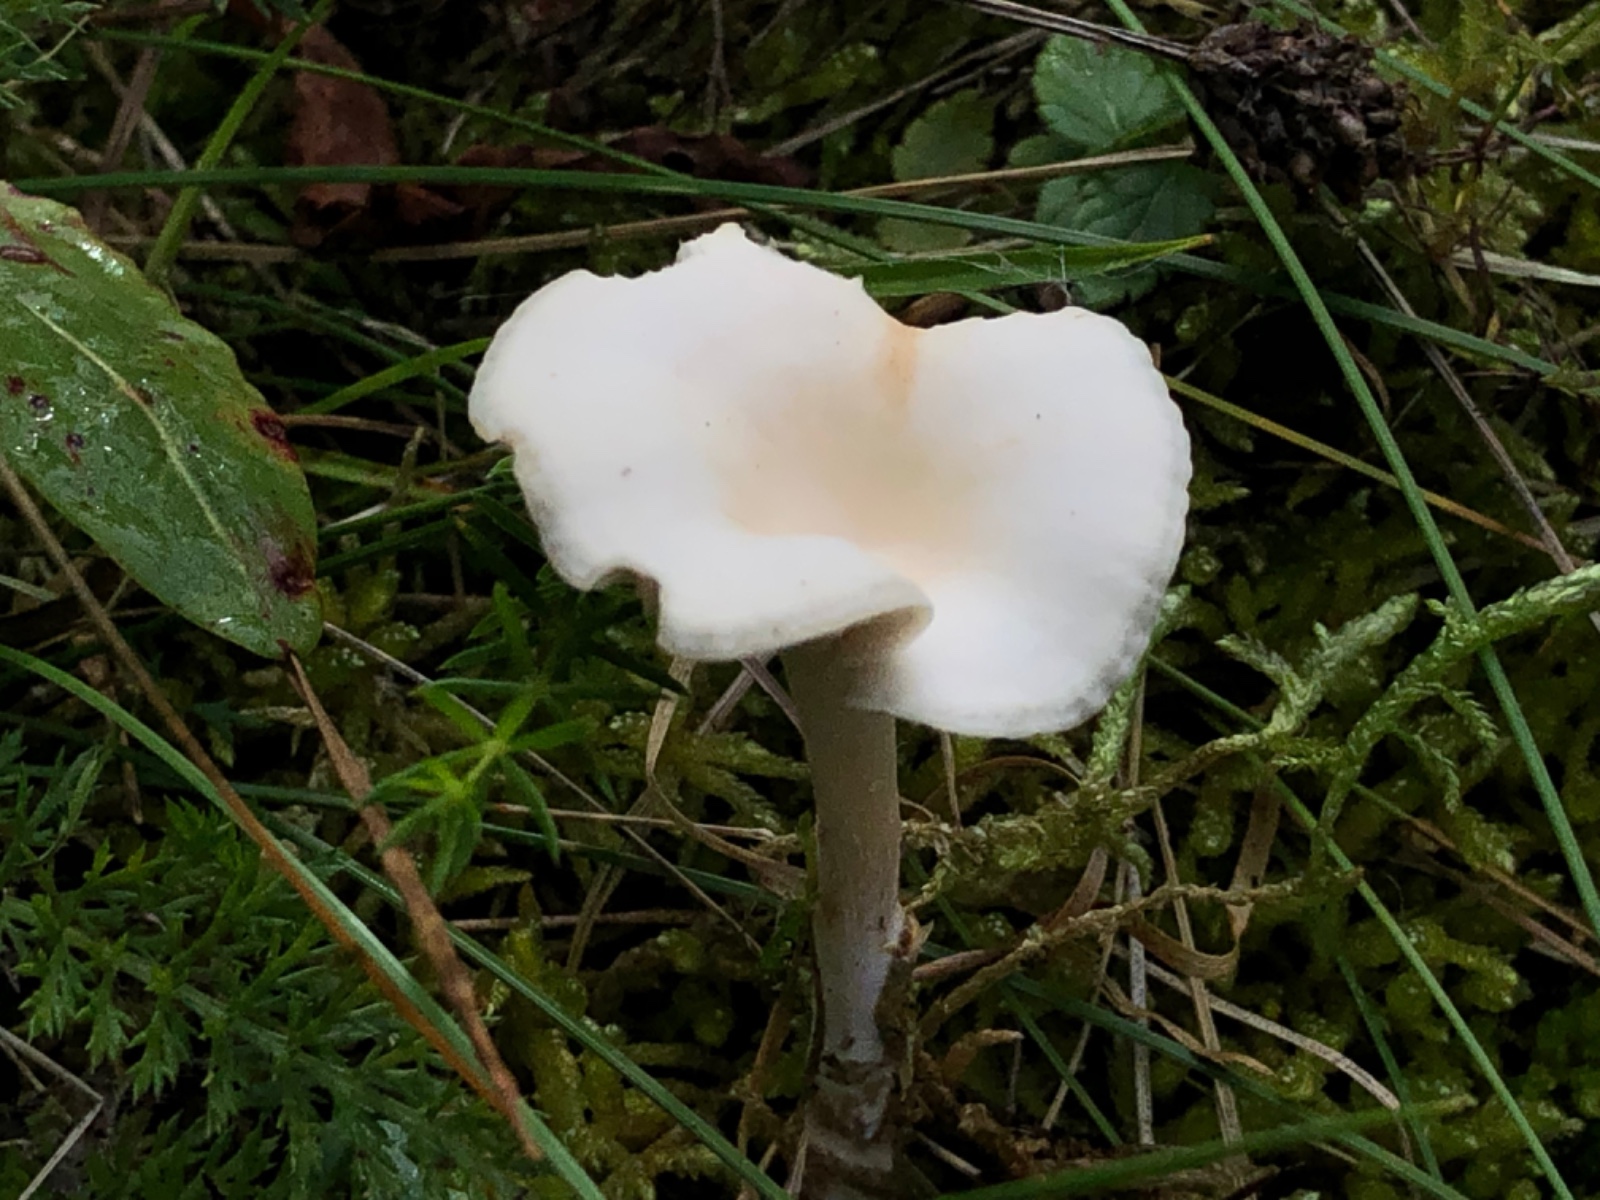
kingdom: Fungi
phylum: Basidiomycota
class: Agaricomycetes
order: Agaricales
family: Tricholomataceae
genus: Clitocybe
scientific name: Clitocybe
